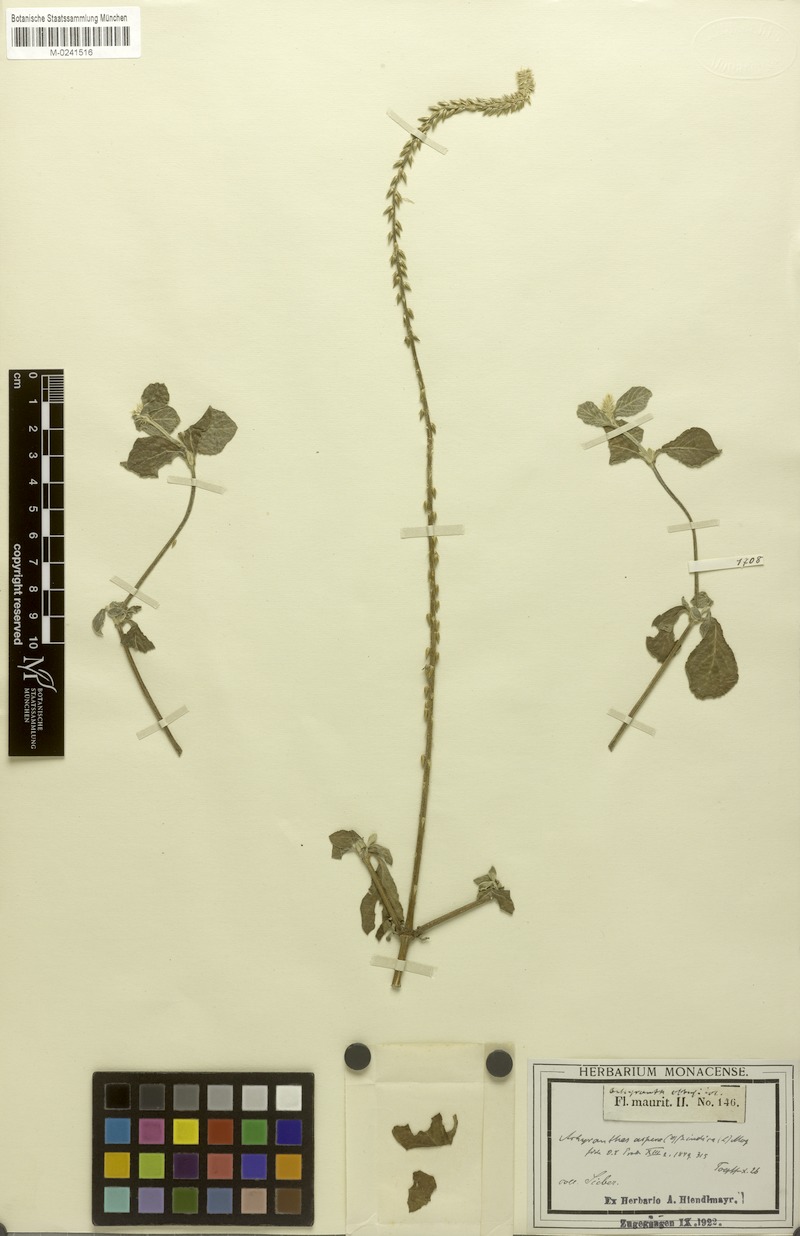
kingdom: Plantae
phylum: Tracheophyta
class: Magnoliopsida
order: Caryophyllales
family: Amaranthaceae
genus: Achyranthes
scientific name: Achyranthes aspera
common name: Devil's horsewhip
